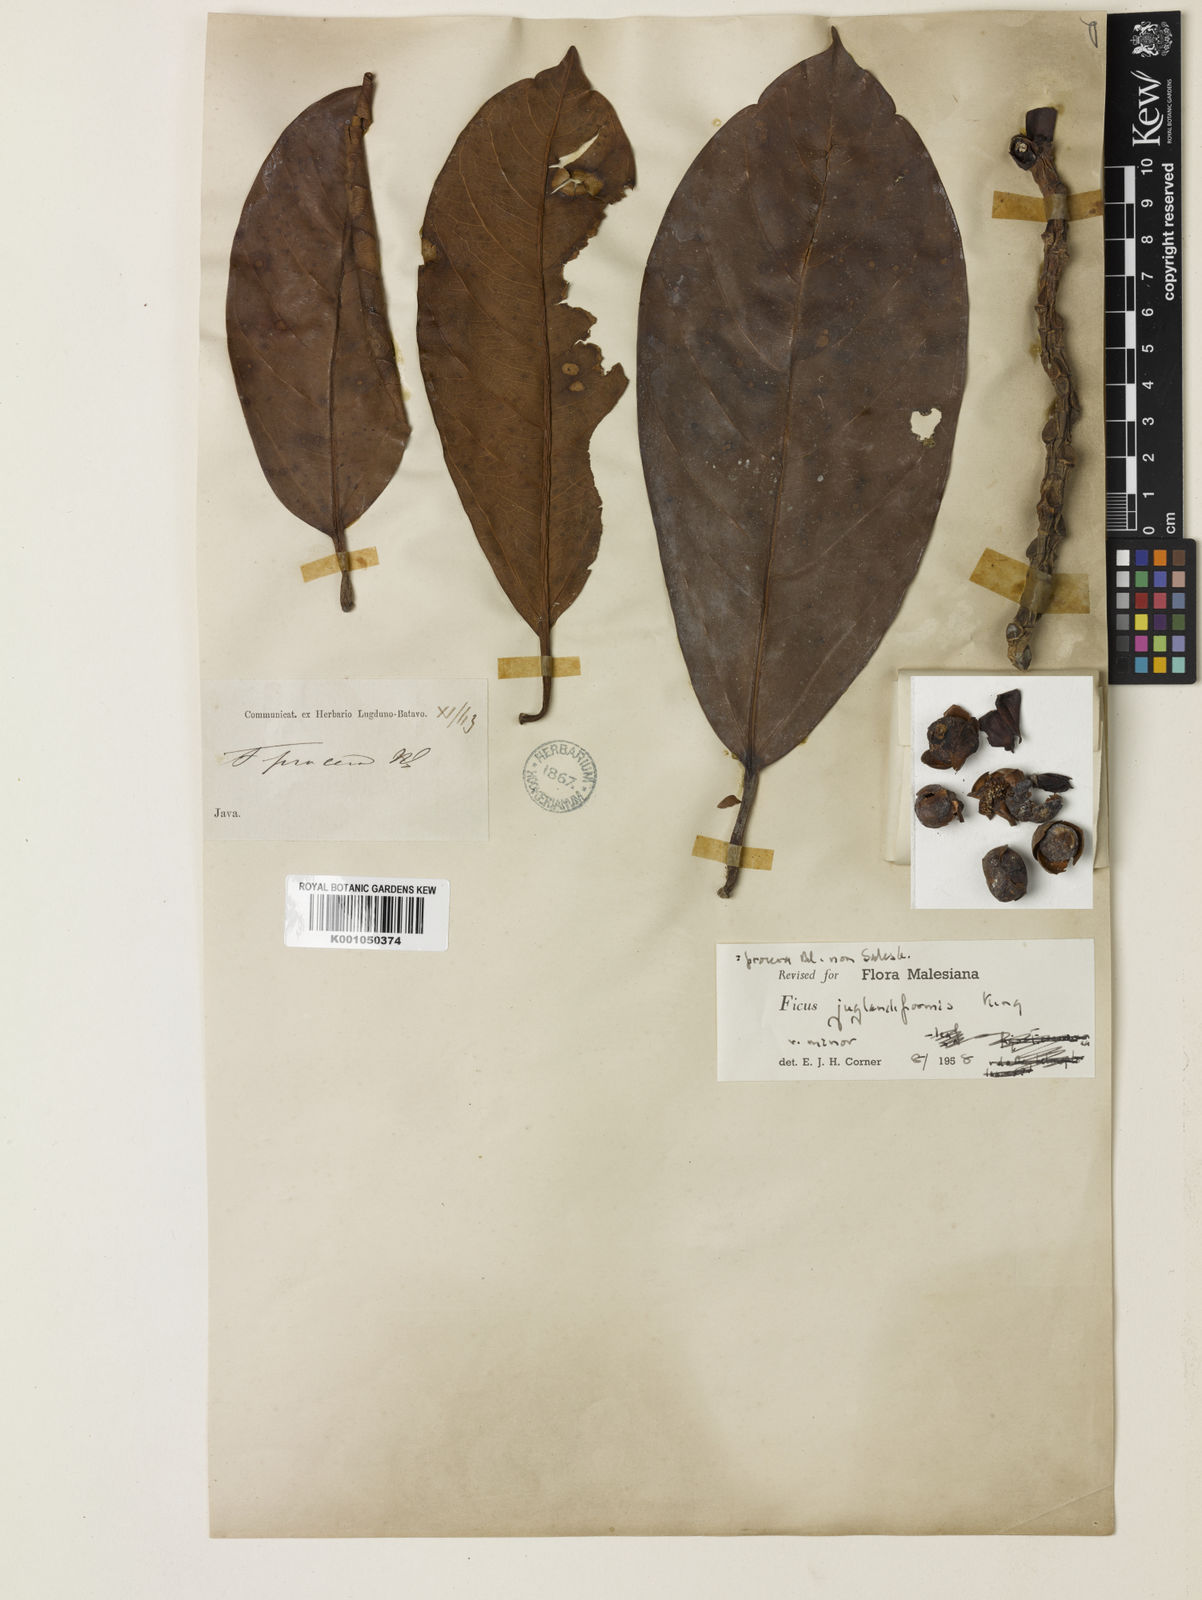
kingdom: Plantae
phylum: Tracheophyta
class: Magnoliopsida
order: Rosales
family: Moraceae
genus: Ficus
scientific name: Ficus crassiramea
